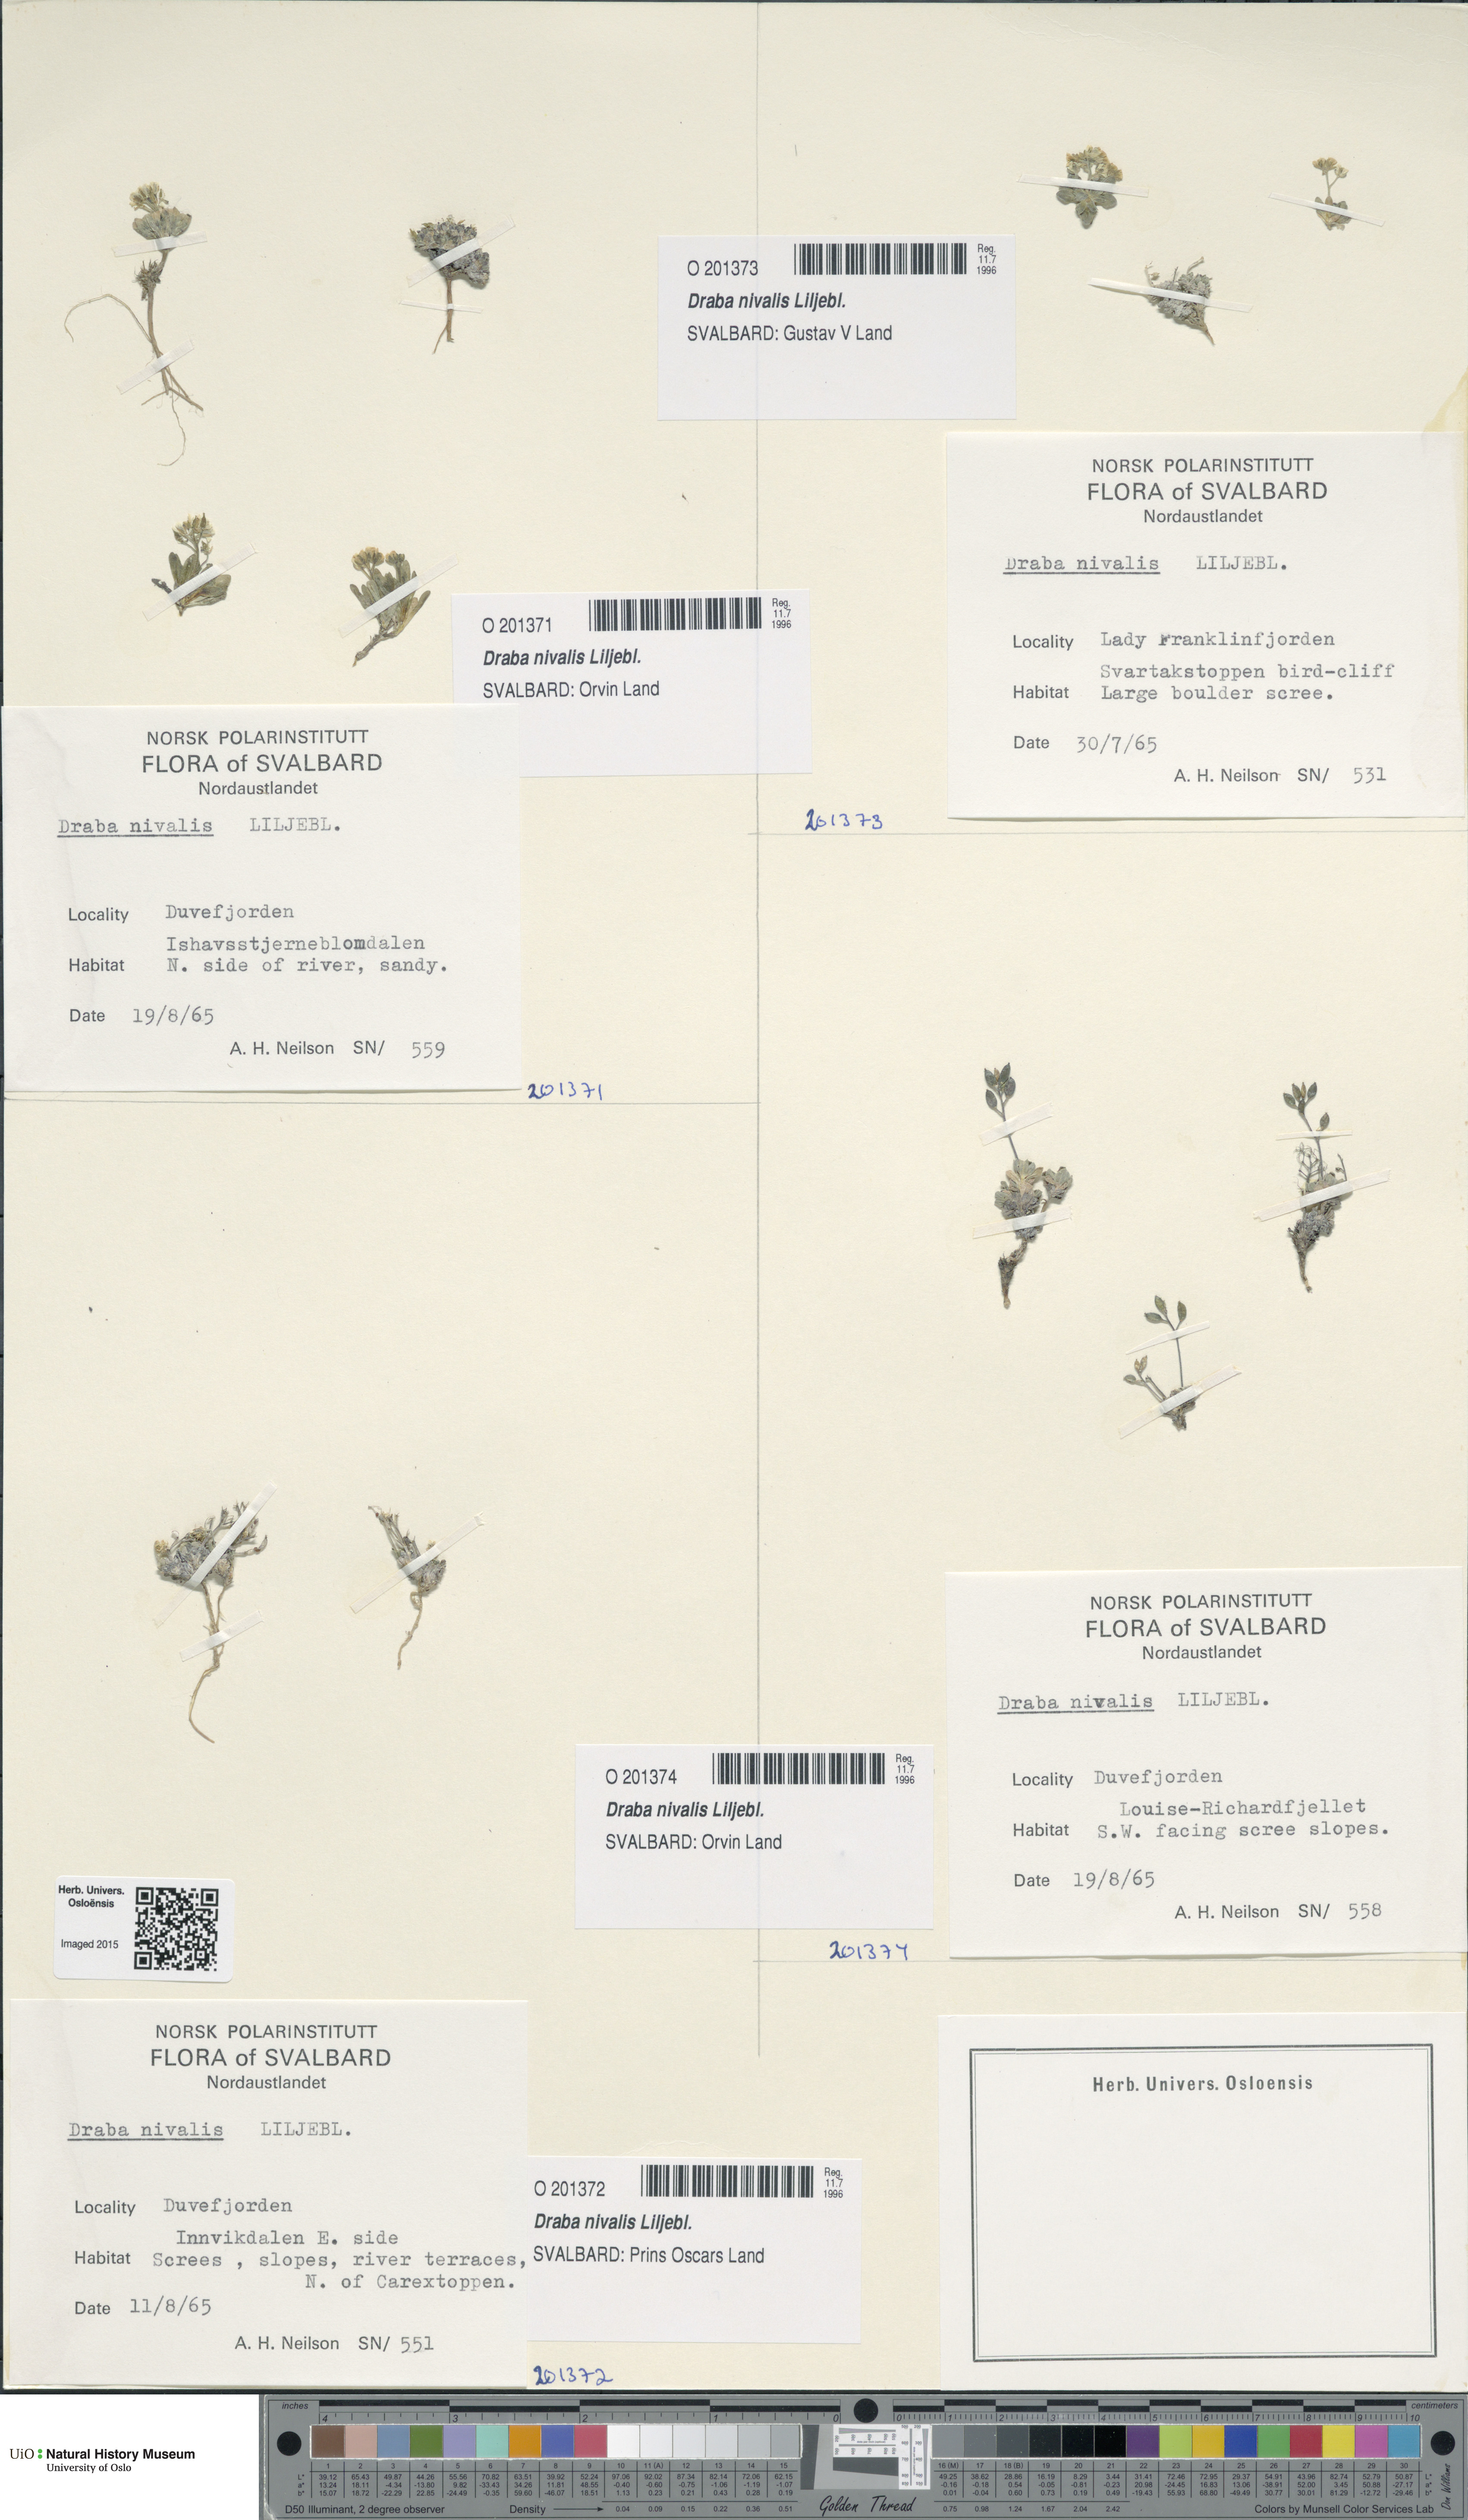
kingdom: Plantae
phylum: Tracheophyta
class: Magnoliopsida
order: Brassicales
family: Brassicaceae
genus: Draba
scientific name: Draba nivalis
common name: Snow draba
